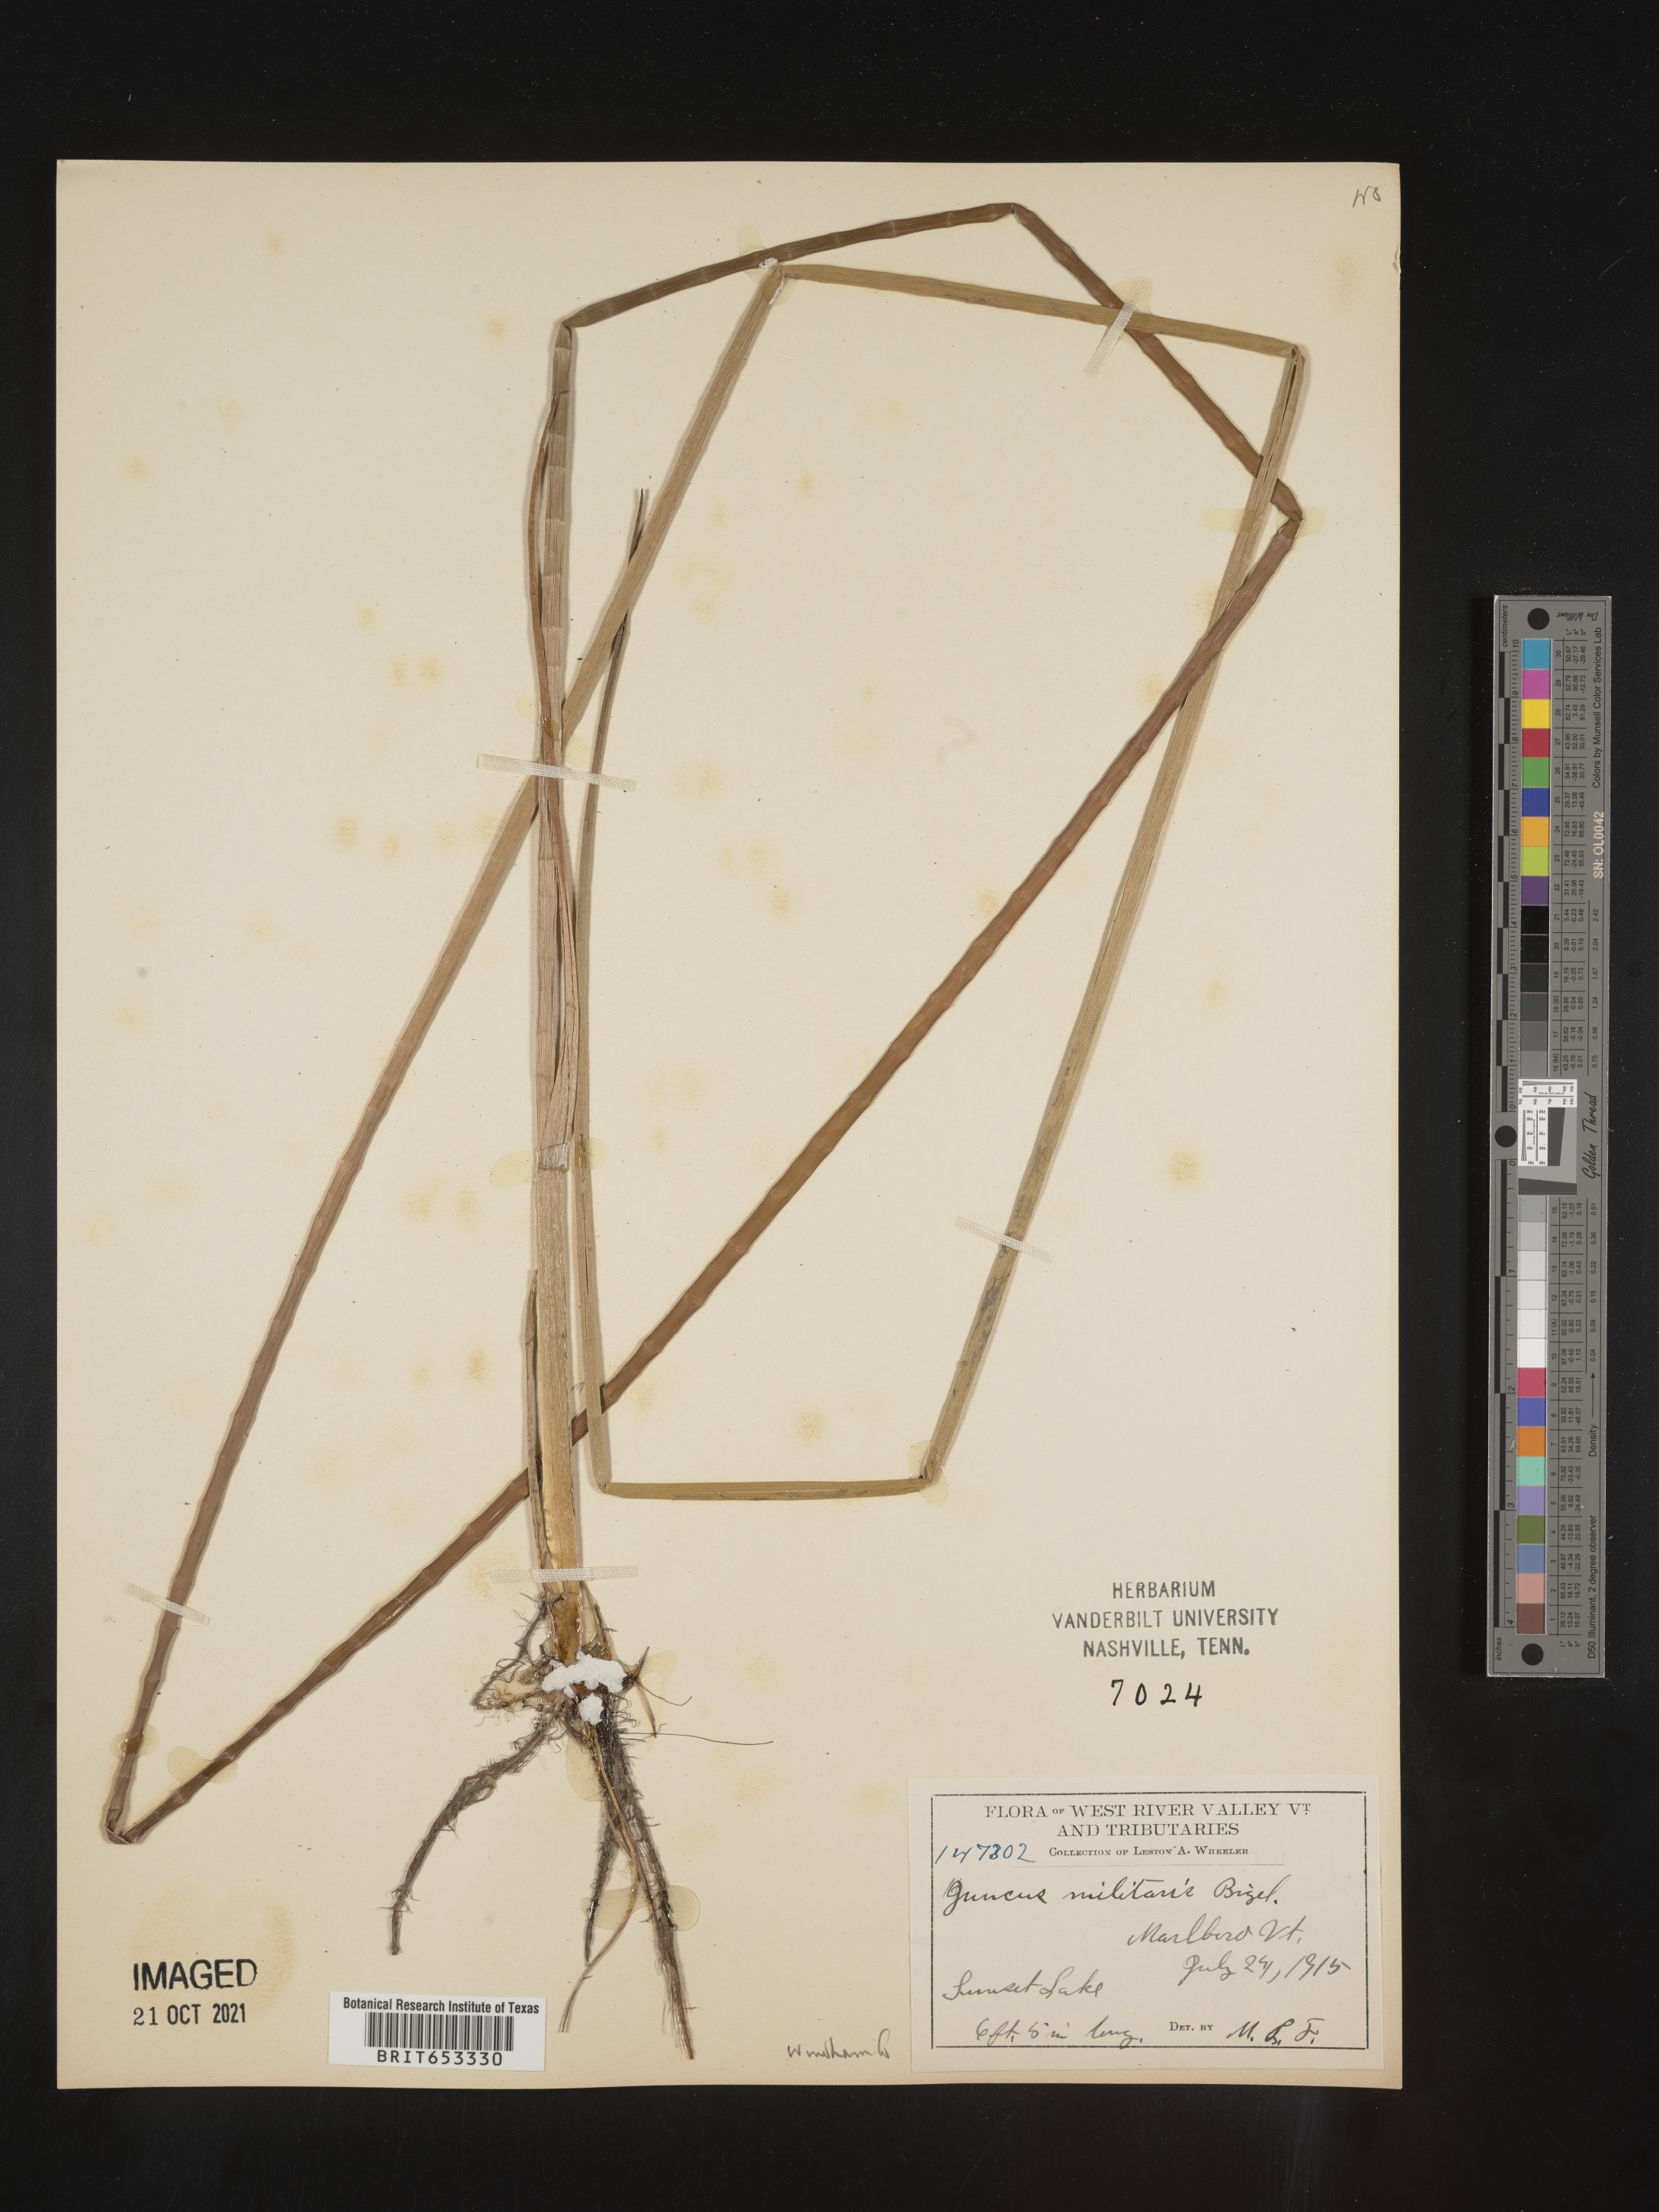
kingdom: Plantae
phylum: Tracheophyta
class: Liliopsida
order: Poales
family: Juncaceae
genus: Juncus
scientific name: Juncus militaris
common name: Bayonet rush
